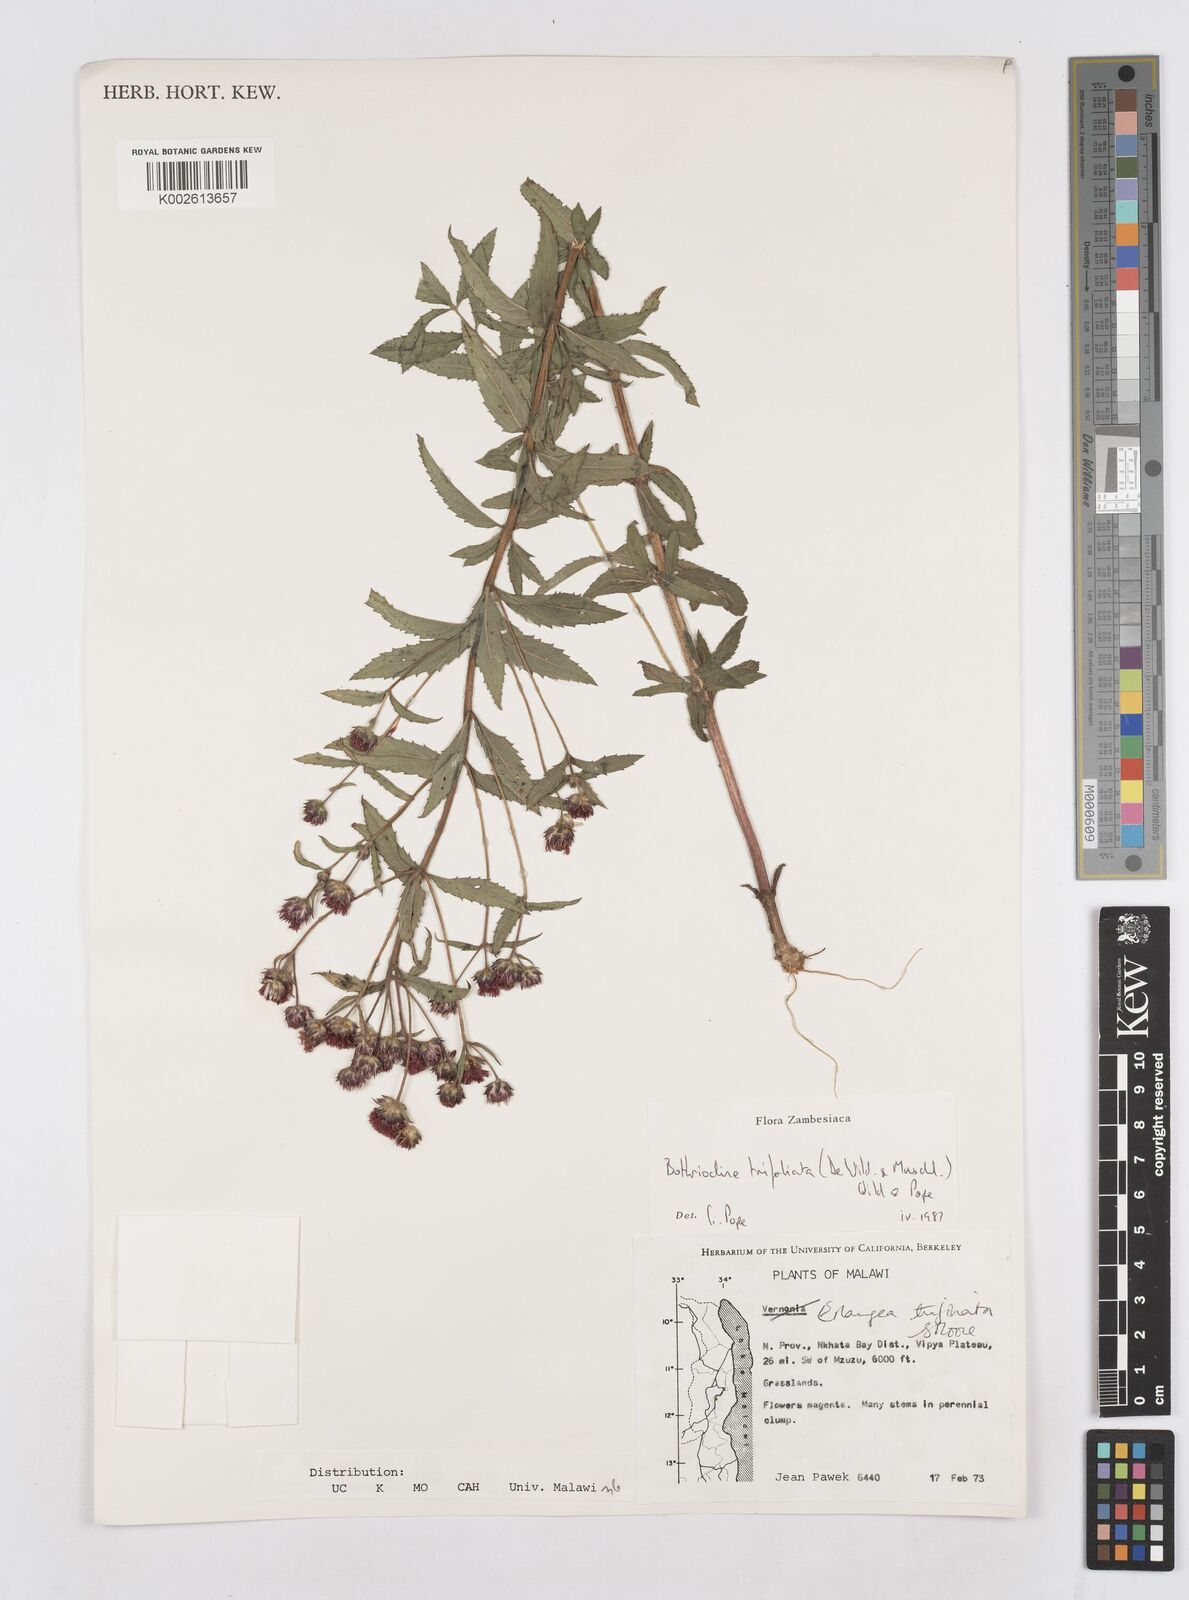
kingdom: Plantae
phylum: Tracheophyta
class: Magnoliopsida
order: Asterales
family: Asteraceae
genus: Bothriocline
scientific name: Bothriocline trifoliata
